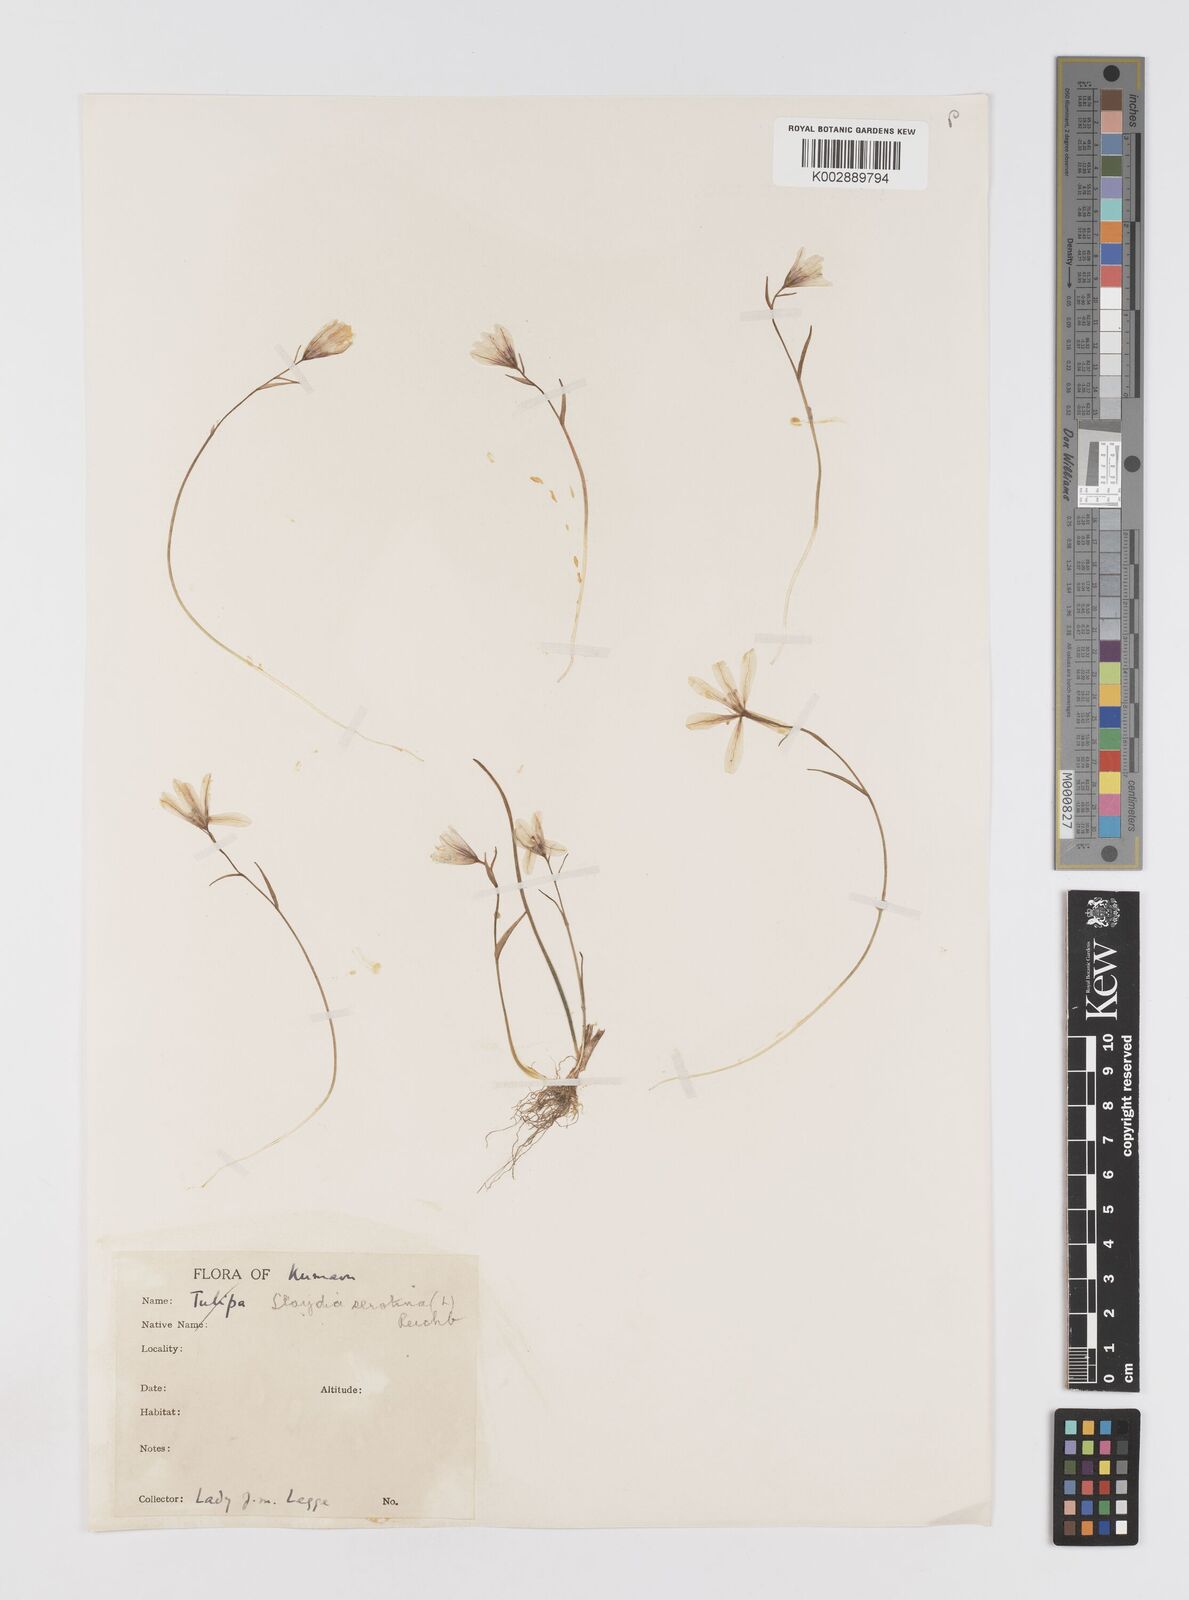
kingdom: Plantae
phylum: Tracheophyta
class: Liliopsida
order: Liliales
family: Liliaceae
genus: Gagea
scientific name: Gagea serotina
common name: Snowdon lily
